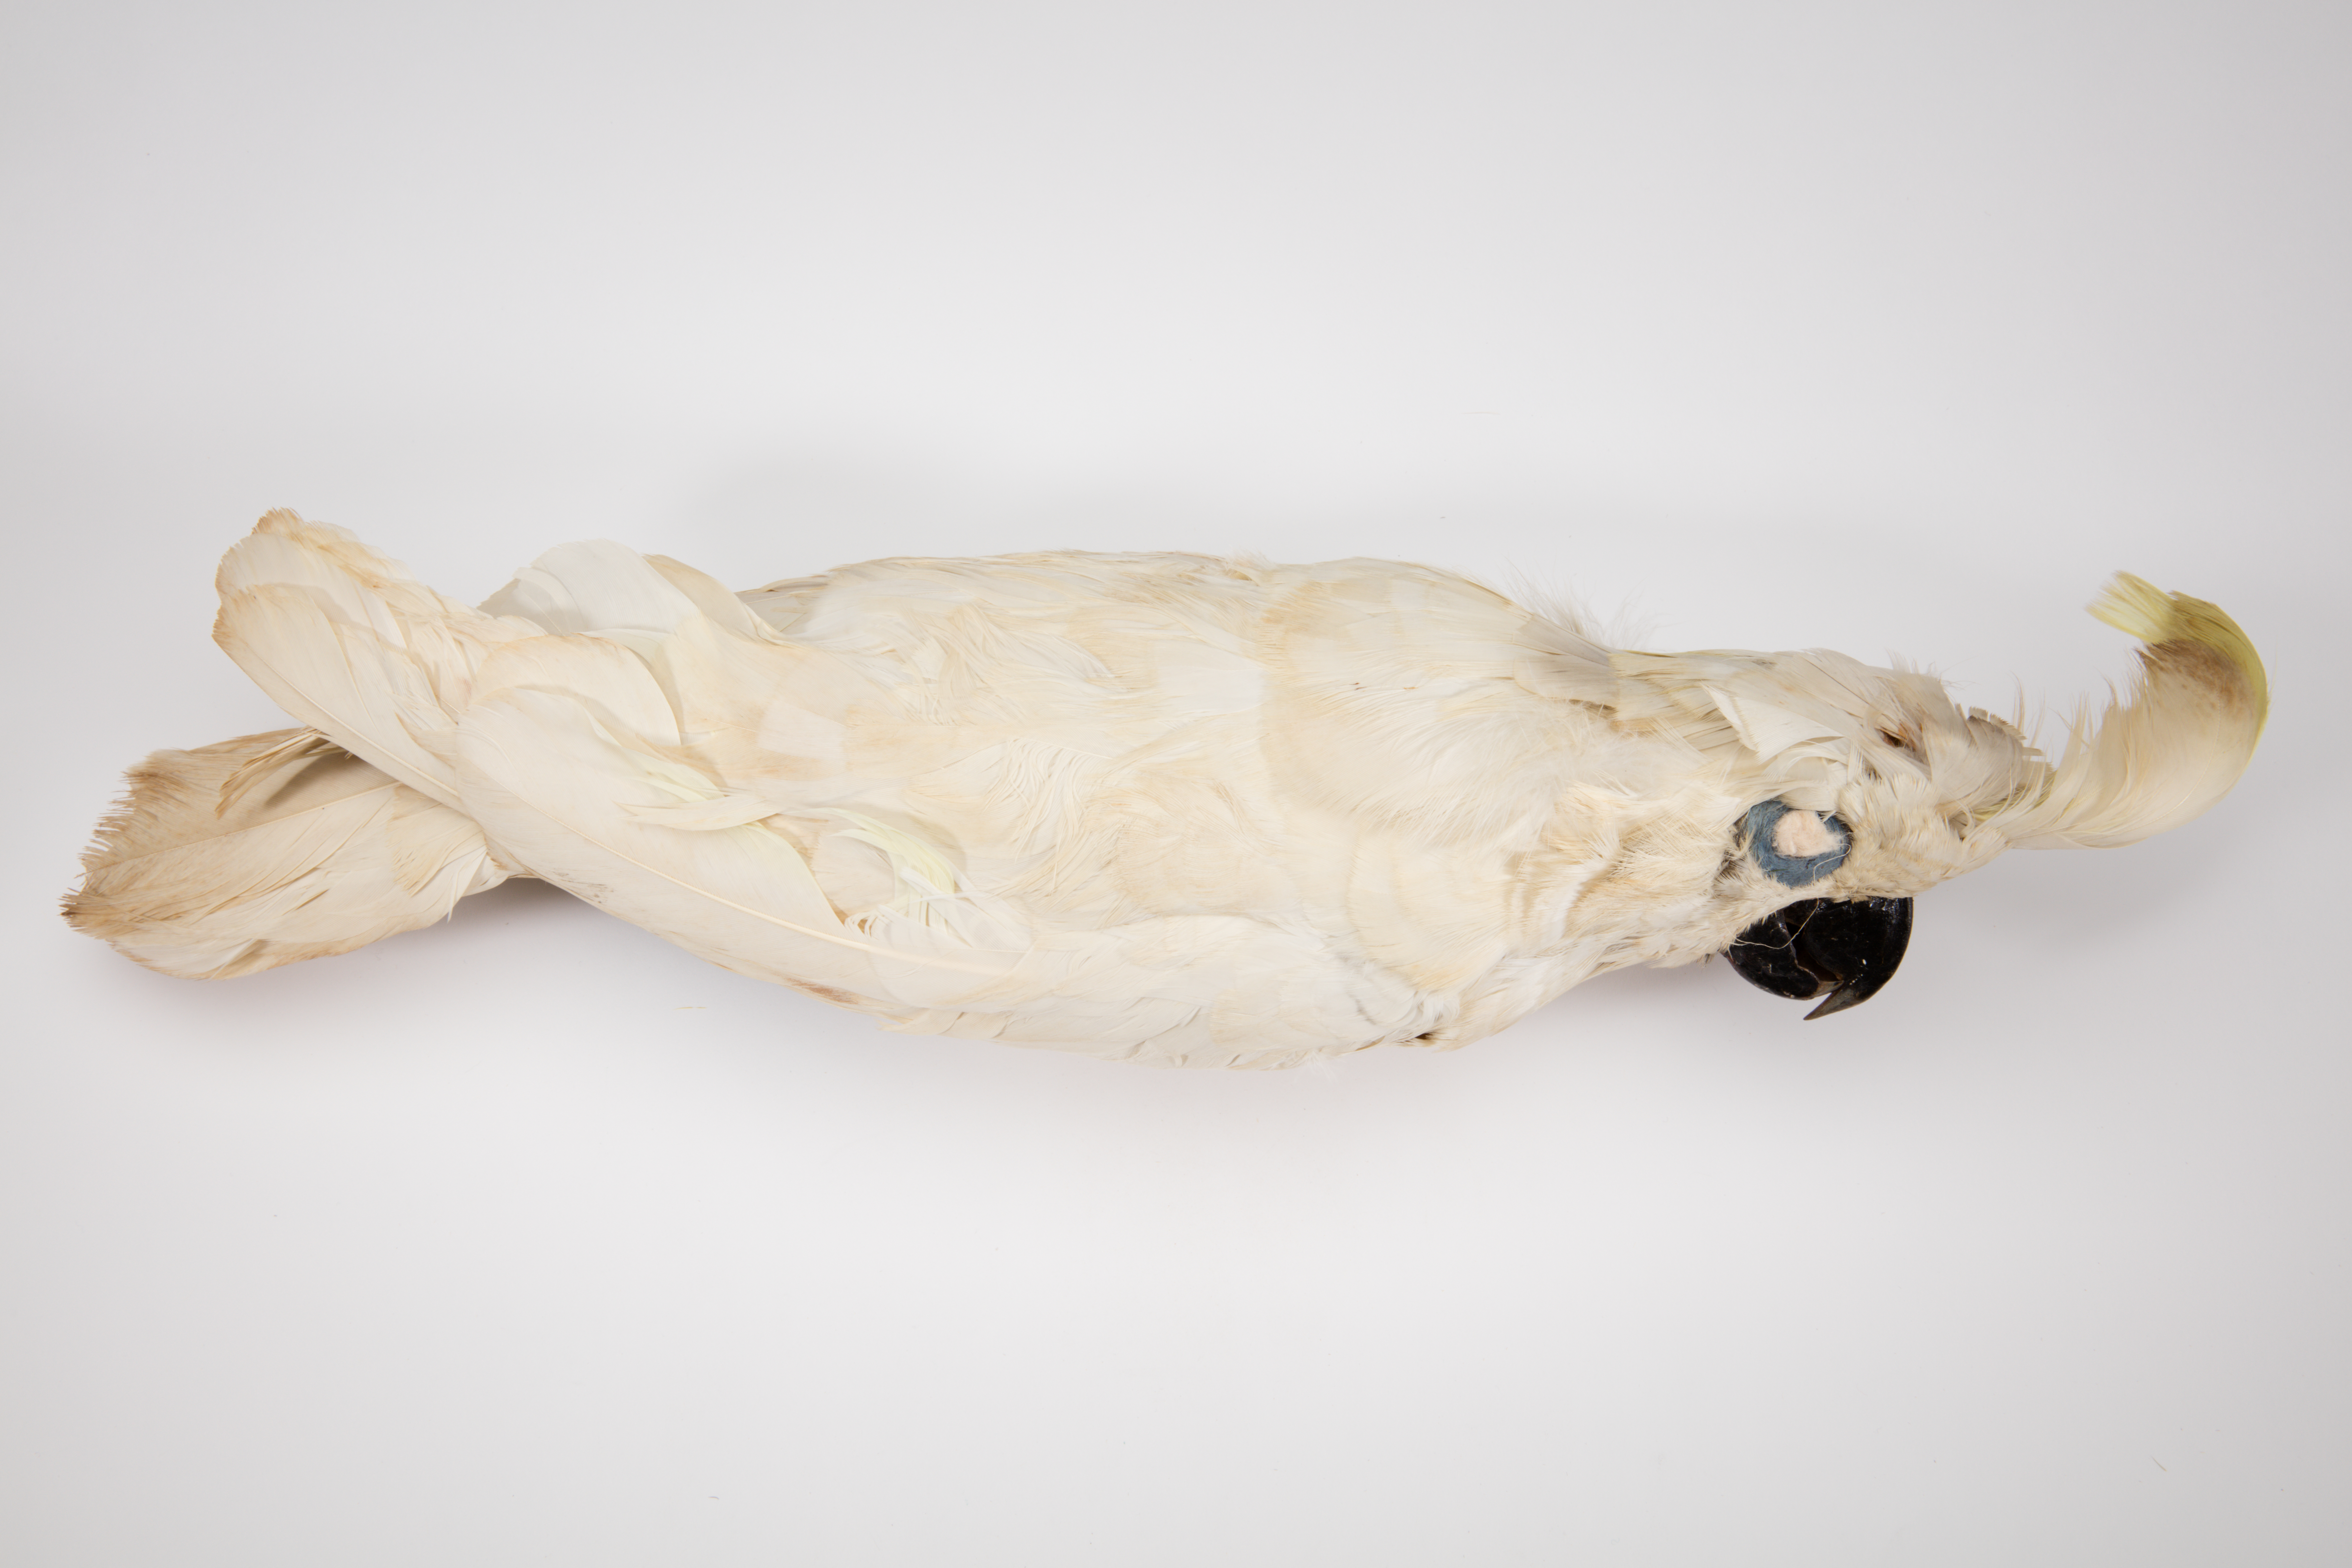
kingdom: Animalia
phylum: Chordata
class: Aves
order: Psittaciformes
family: Psittacidae
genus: Cacatua
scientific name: Cacatua galerita
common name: Sulphur-crested cockatoo
